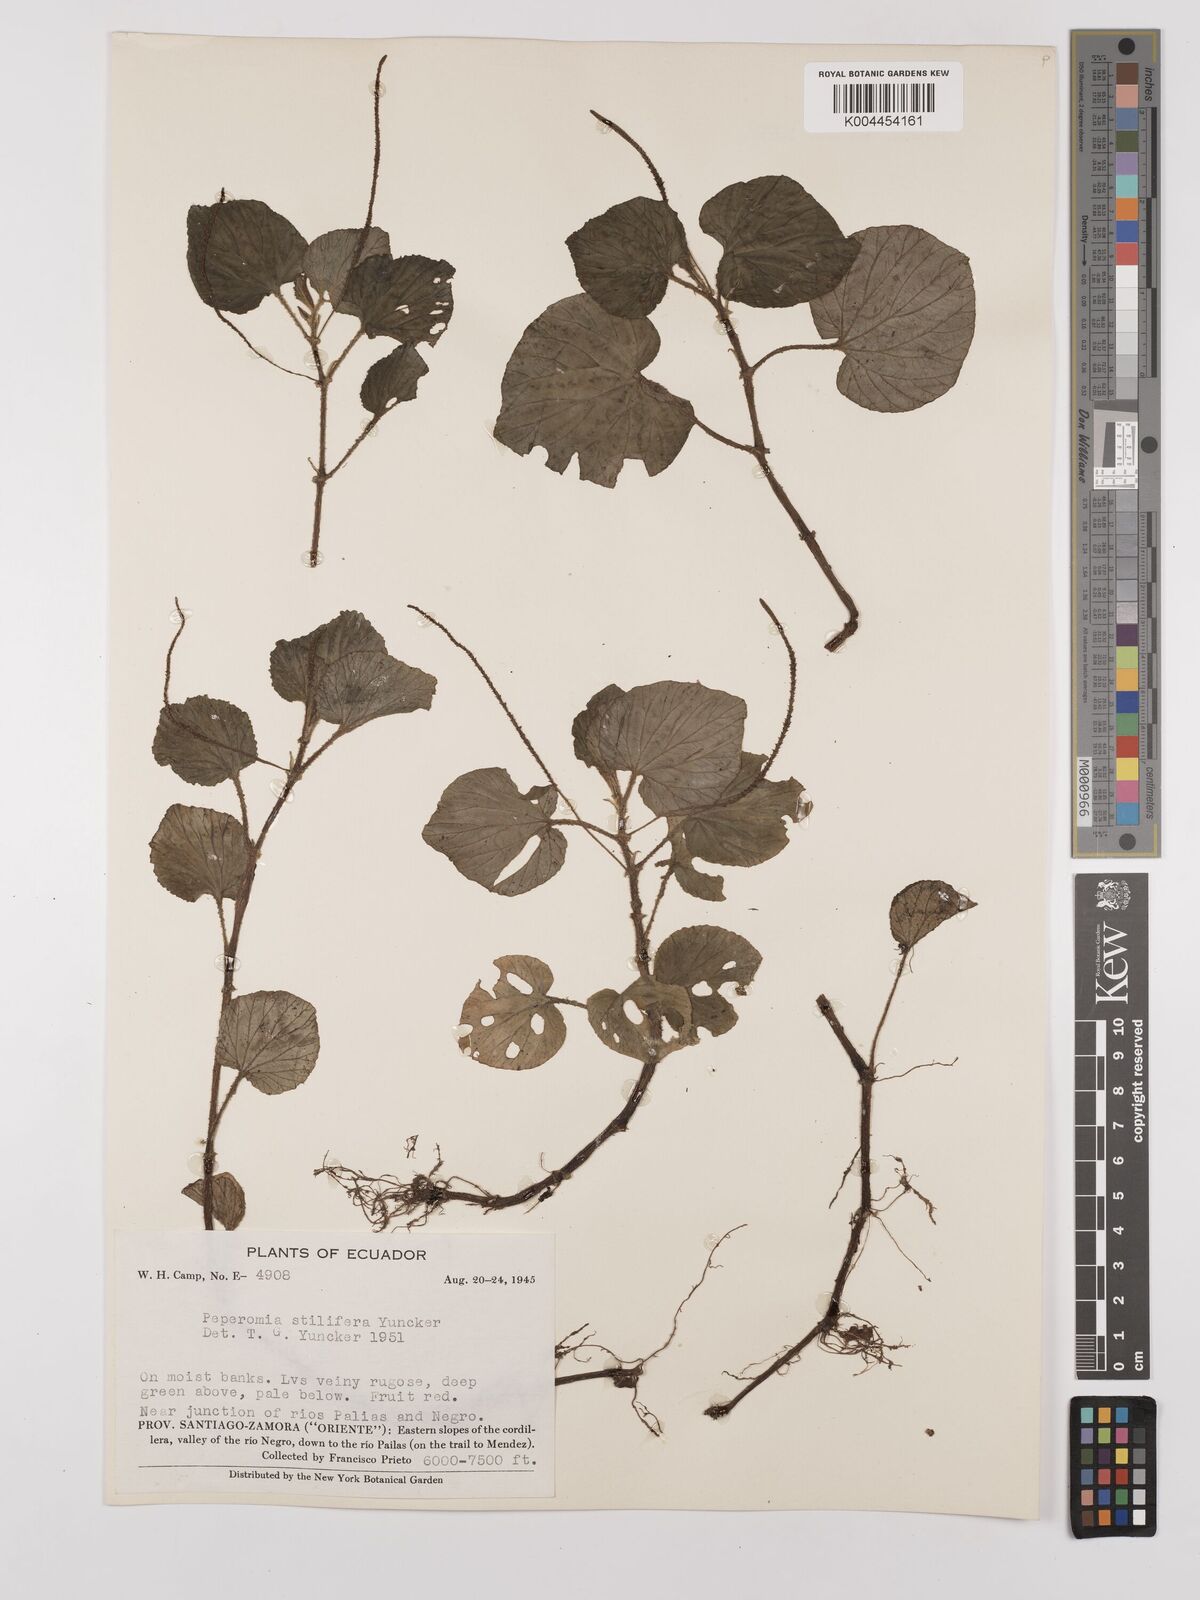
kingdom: Plantae
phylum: Tracheophyta
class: Magnoliopsida
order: Piperales
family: Piperaceae
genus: Peperomia
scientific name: Peperomia stilifera
